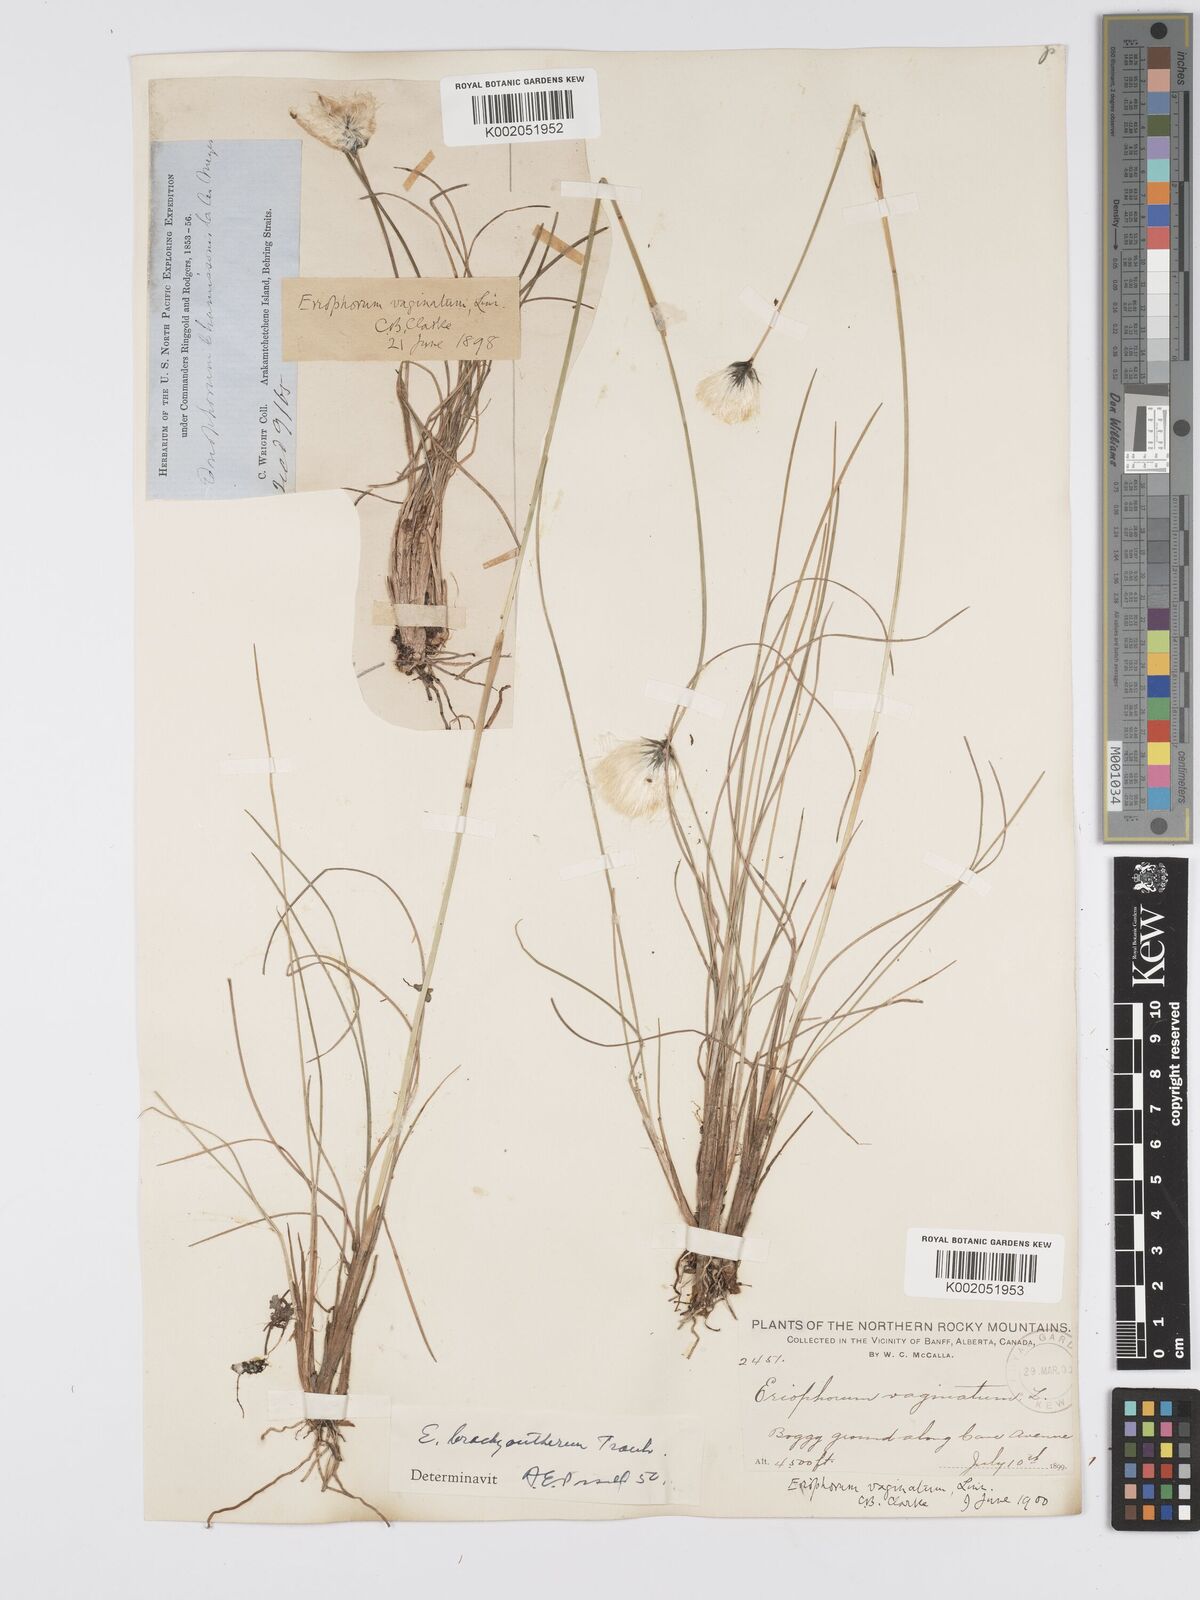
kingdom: Plantae
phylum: Tracheophyta
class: Liliopsida
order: Poales
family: Cyperaceae
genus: Eriophorum
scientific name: Eriophorum brachyantherum
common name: Closed-sheathed cottongrass
